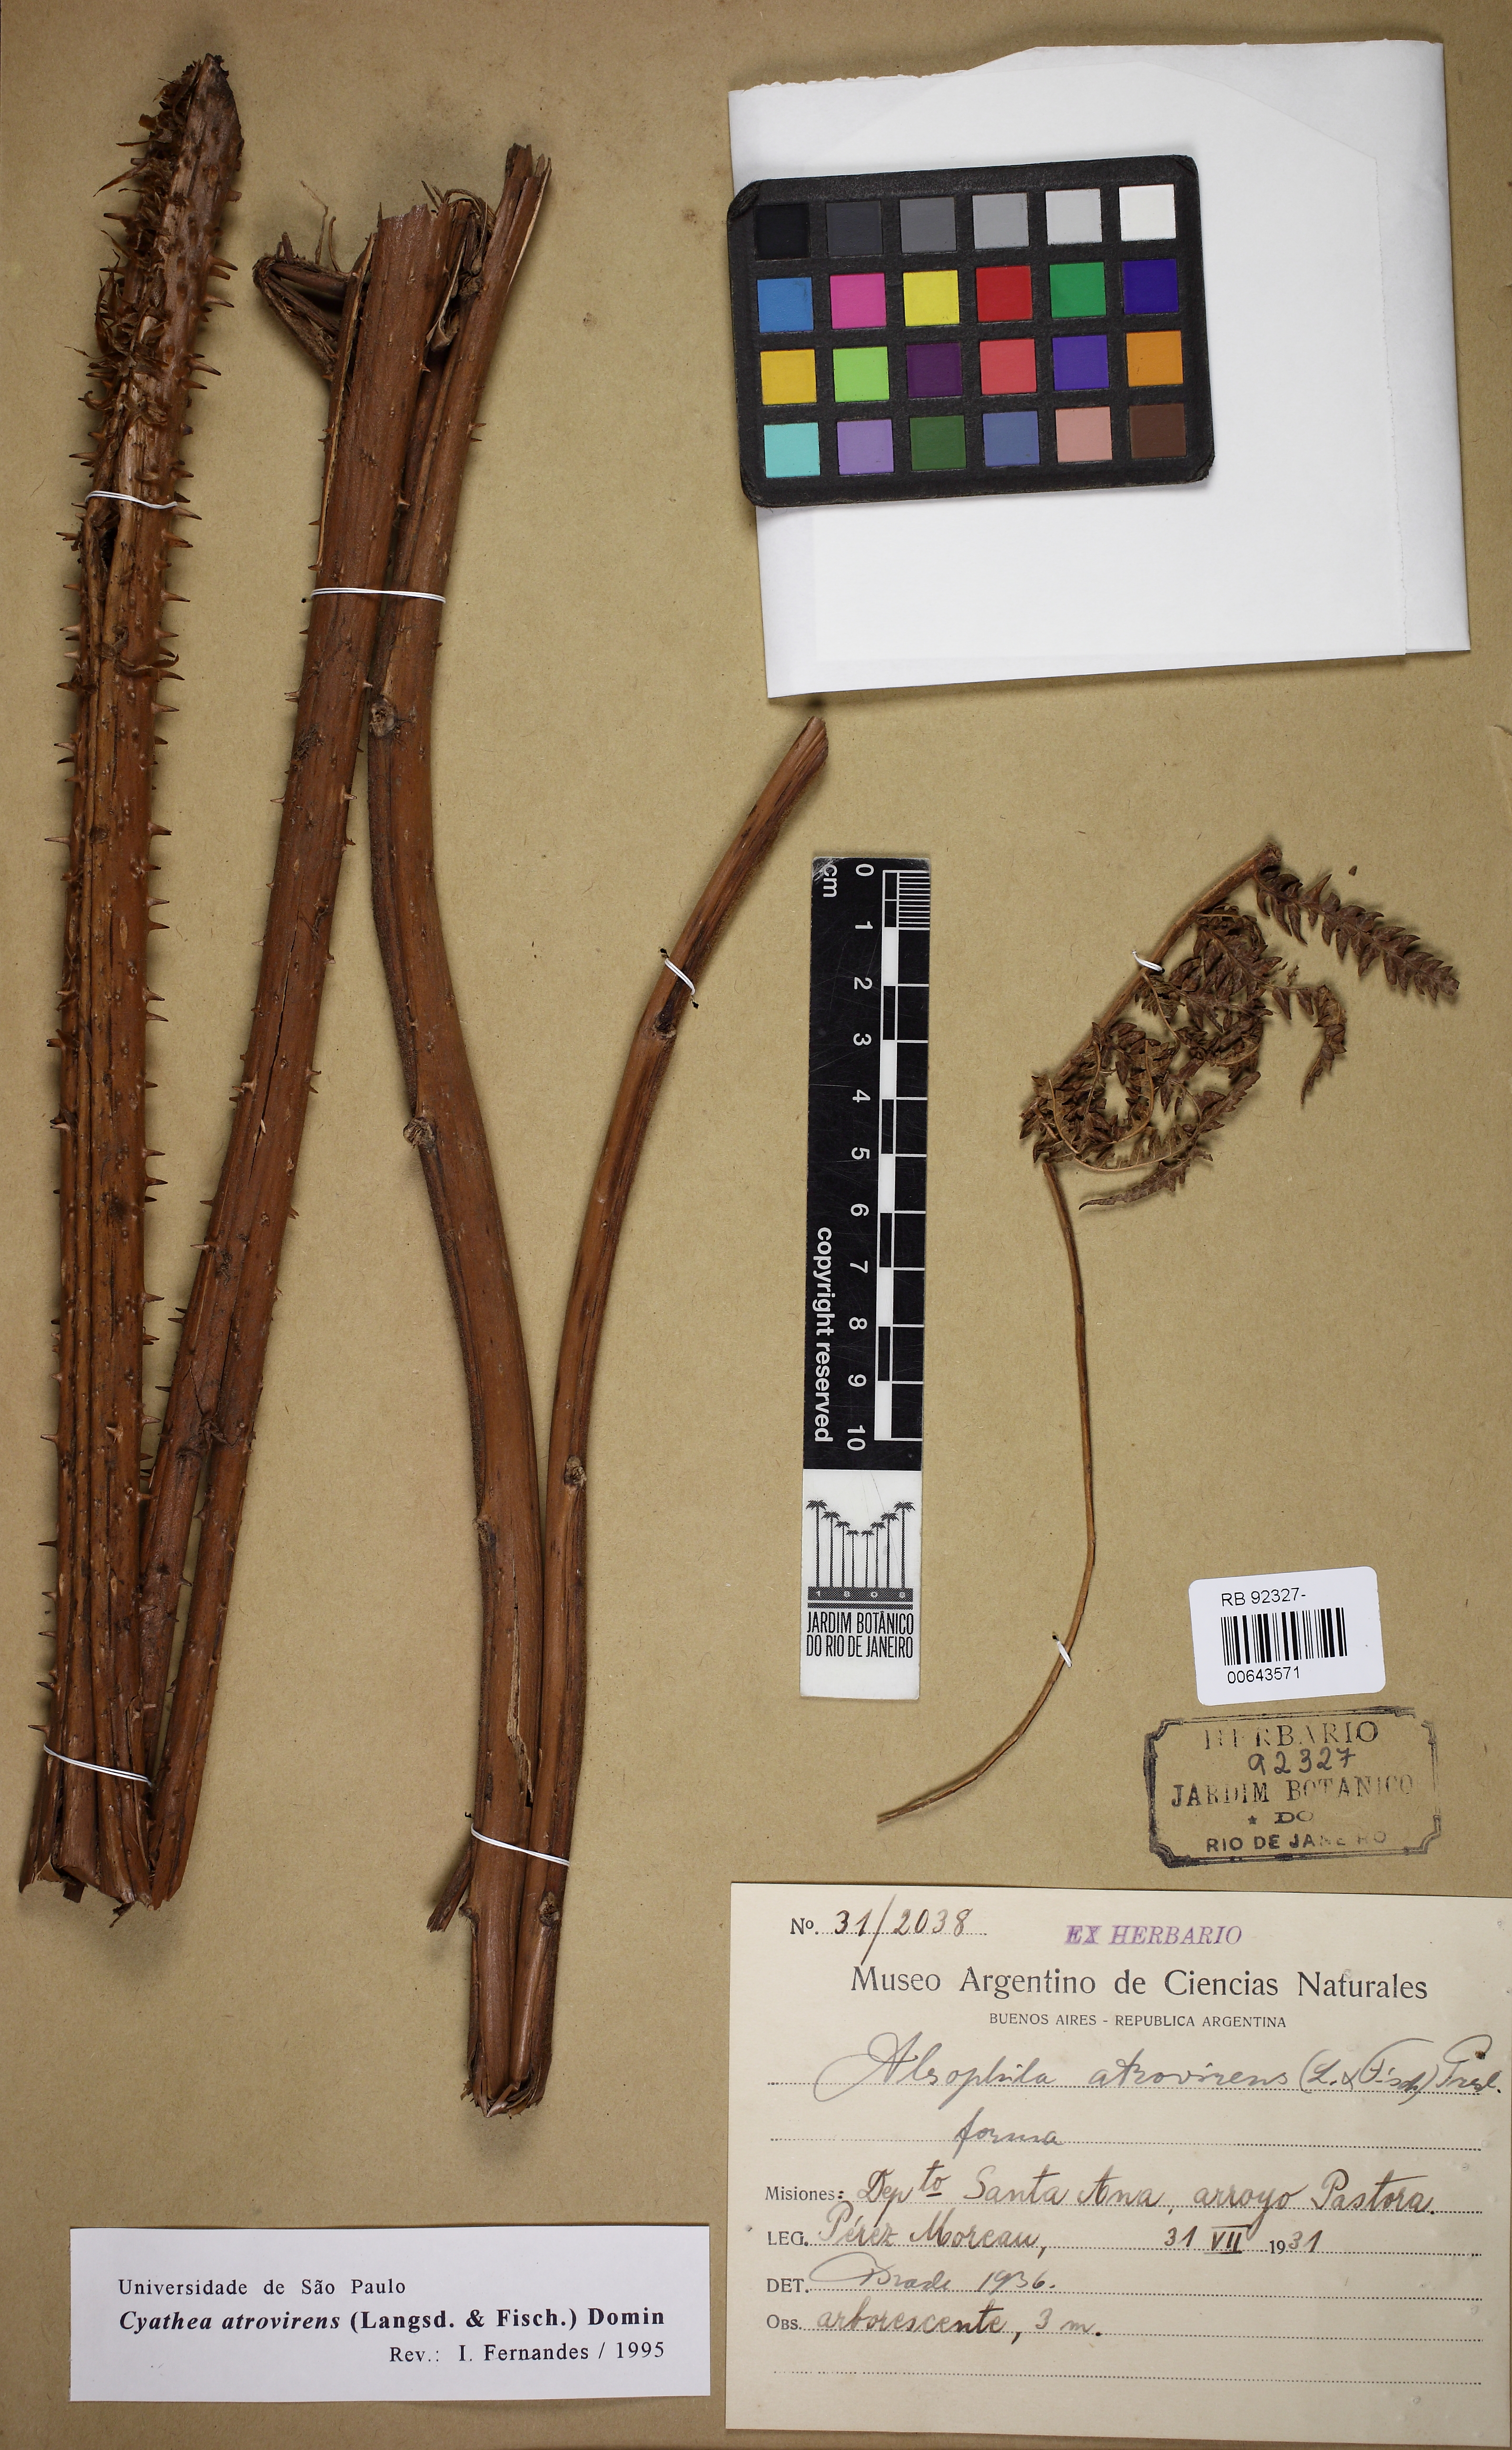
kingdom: Plantae
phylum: Tracheophyta
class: Polypodiopsida
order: Cyatheales
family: Cyatheaceae
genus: Cyathea
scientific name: Cyathea atrovirens
